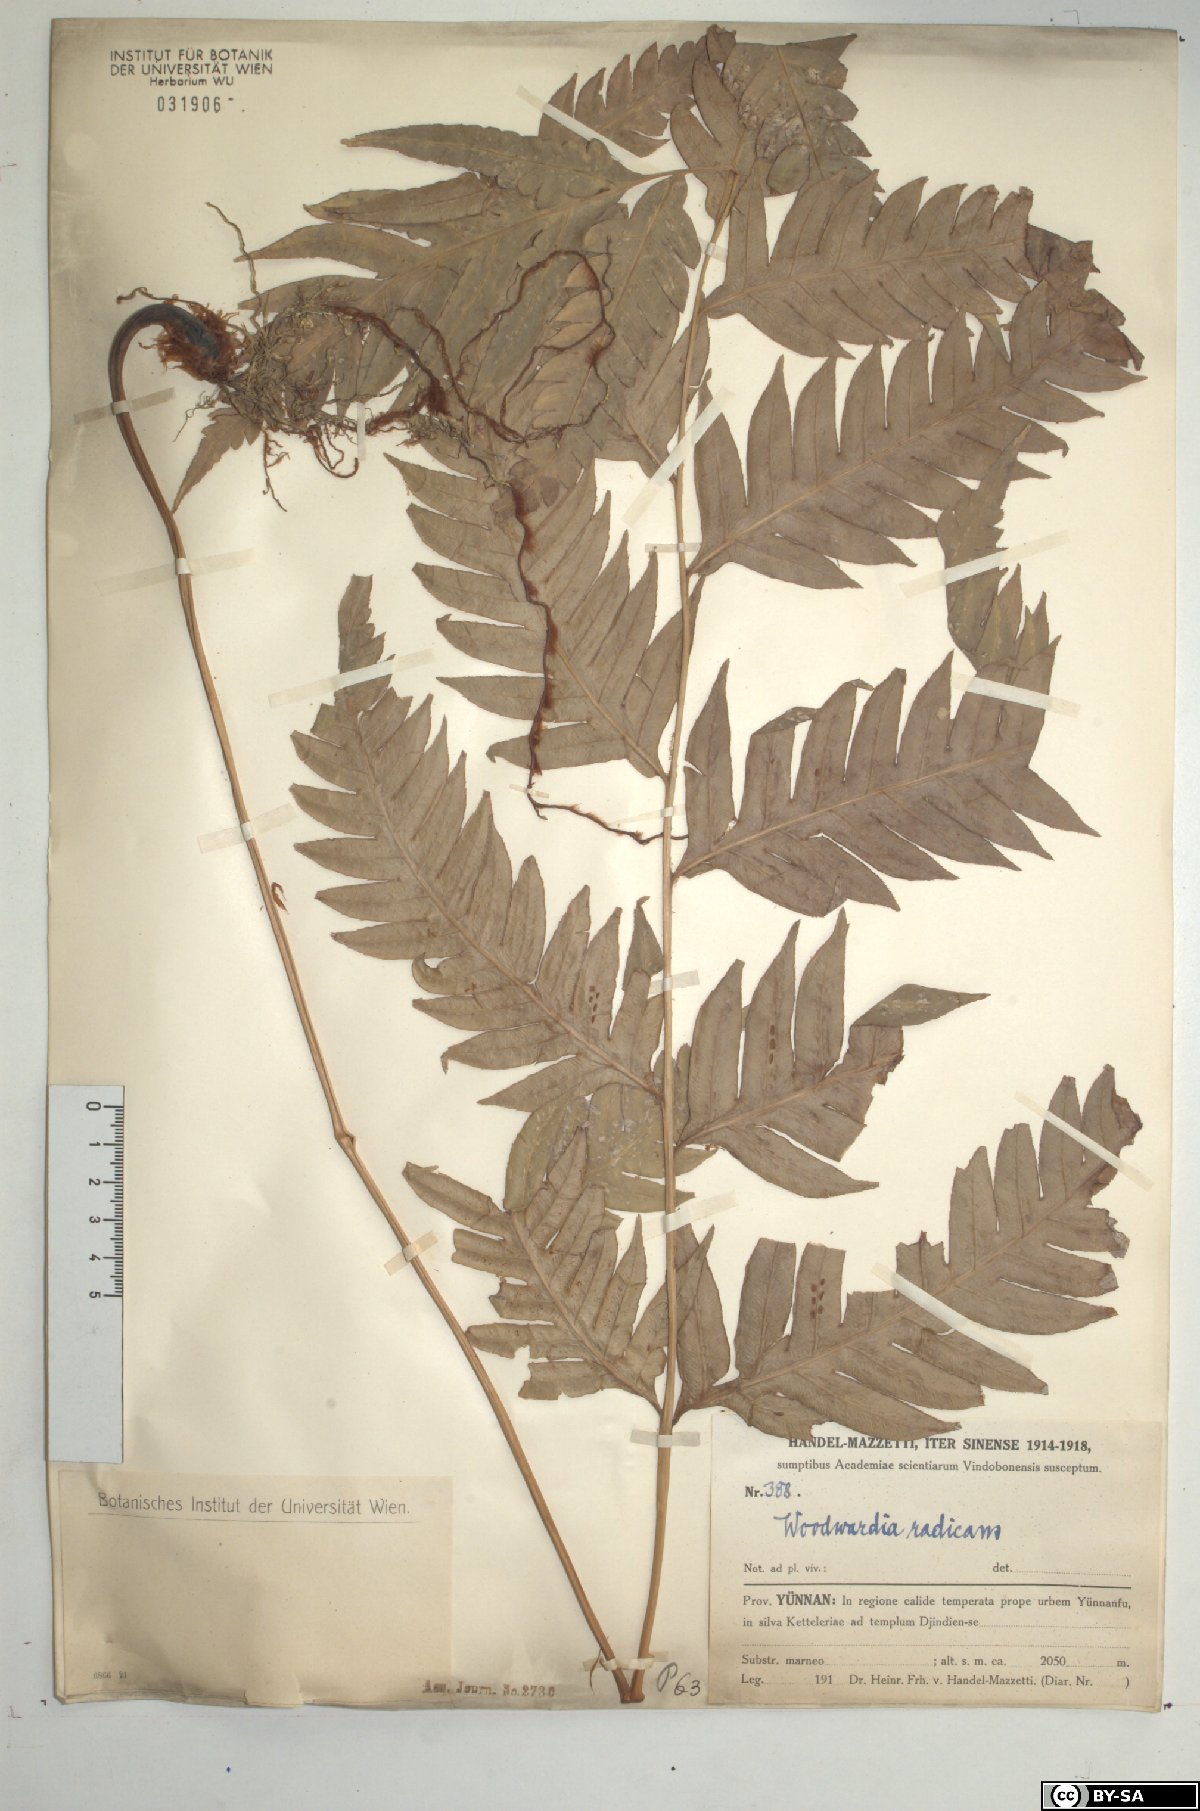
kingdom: Plantae
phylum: Tracheophyta
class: Polypodiopsida
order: Polypodiales
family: Blechnaceae
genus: Woodwardia
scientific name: Woodwardia radicans
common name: Rooting chainfern
